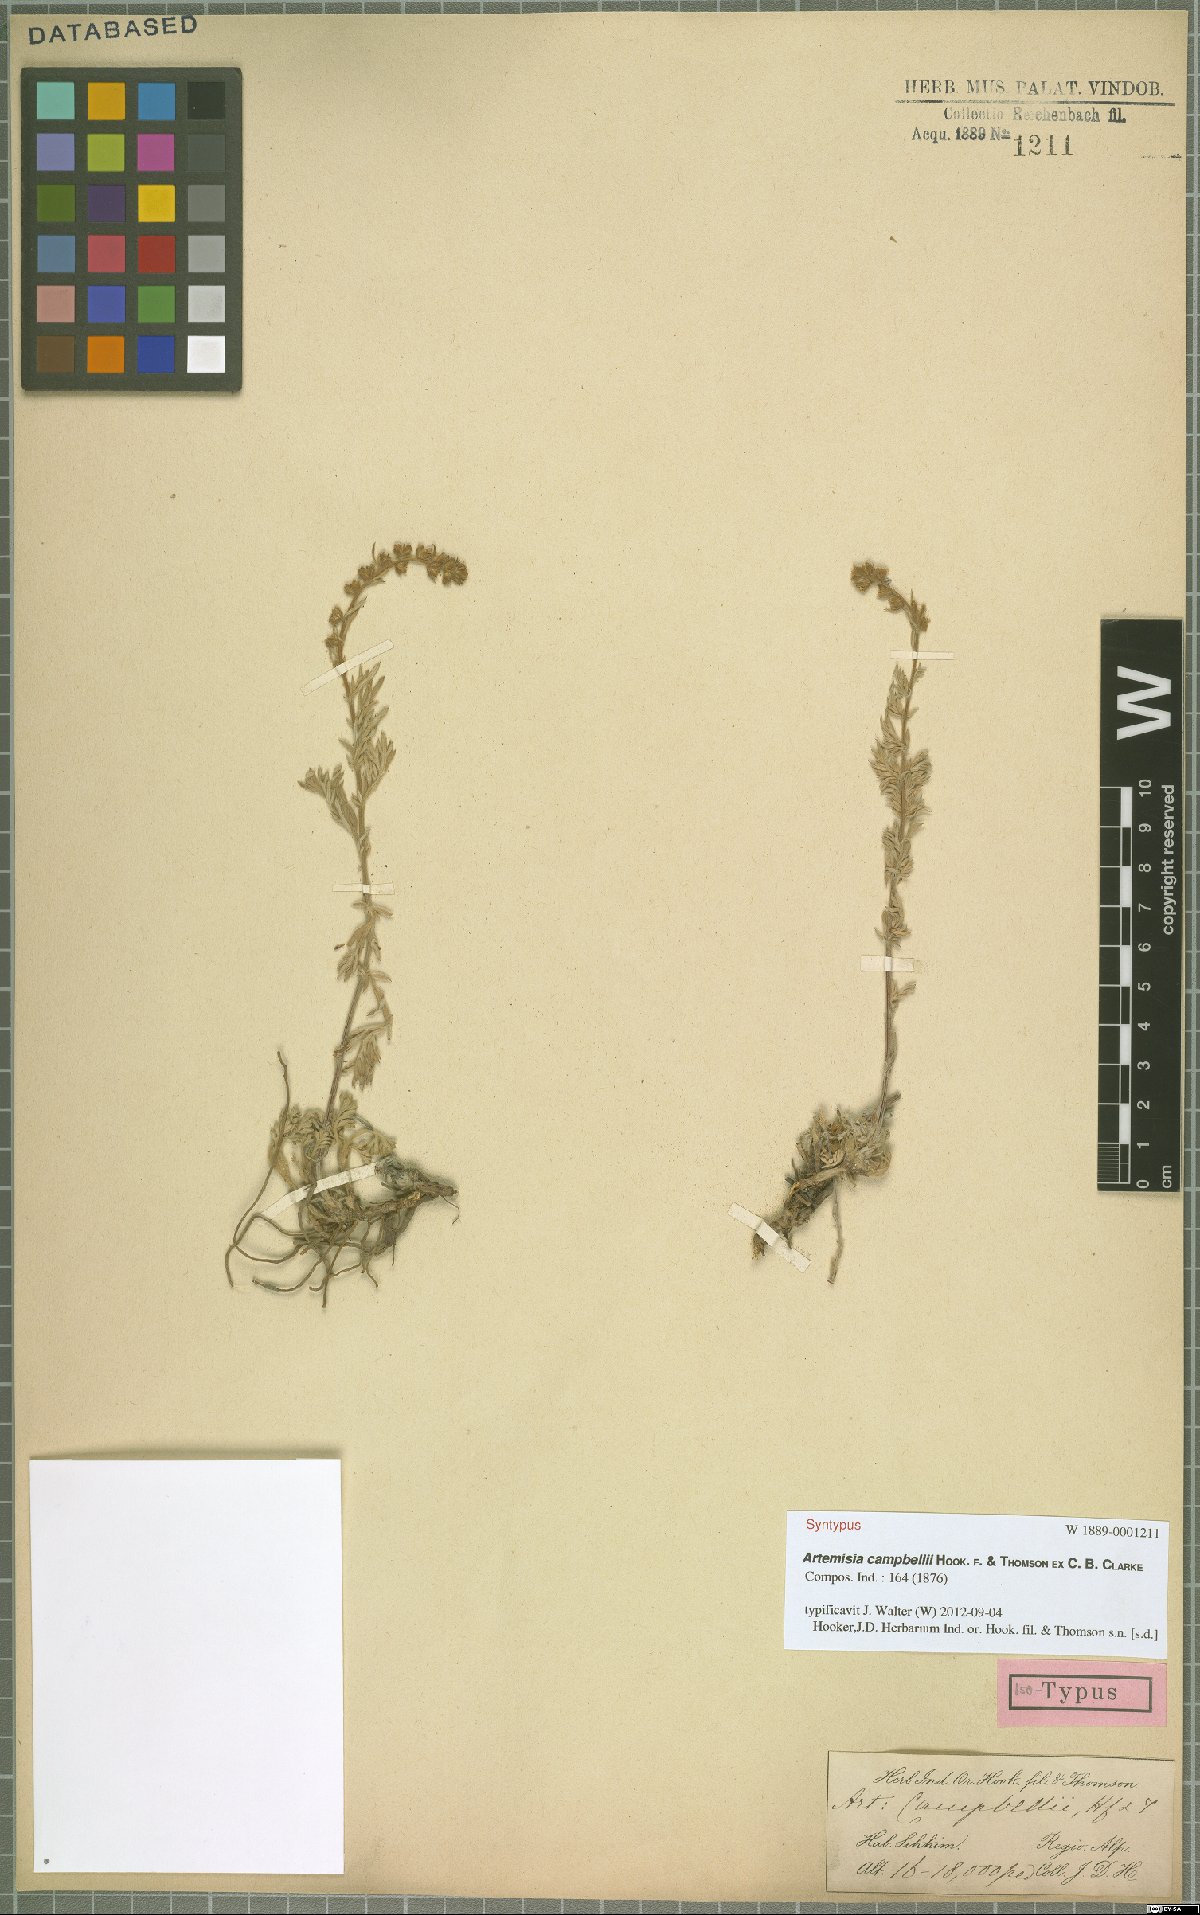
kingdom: Plantae
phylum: Tracheophyta
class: Magnoliopsida
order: Asterales
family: Asteraceae
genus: Artemisia
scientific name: Artemisia campbellii
